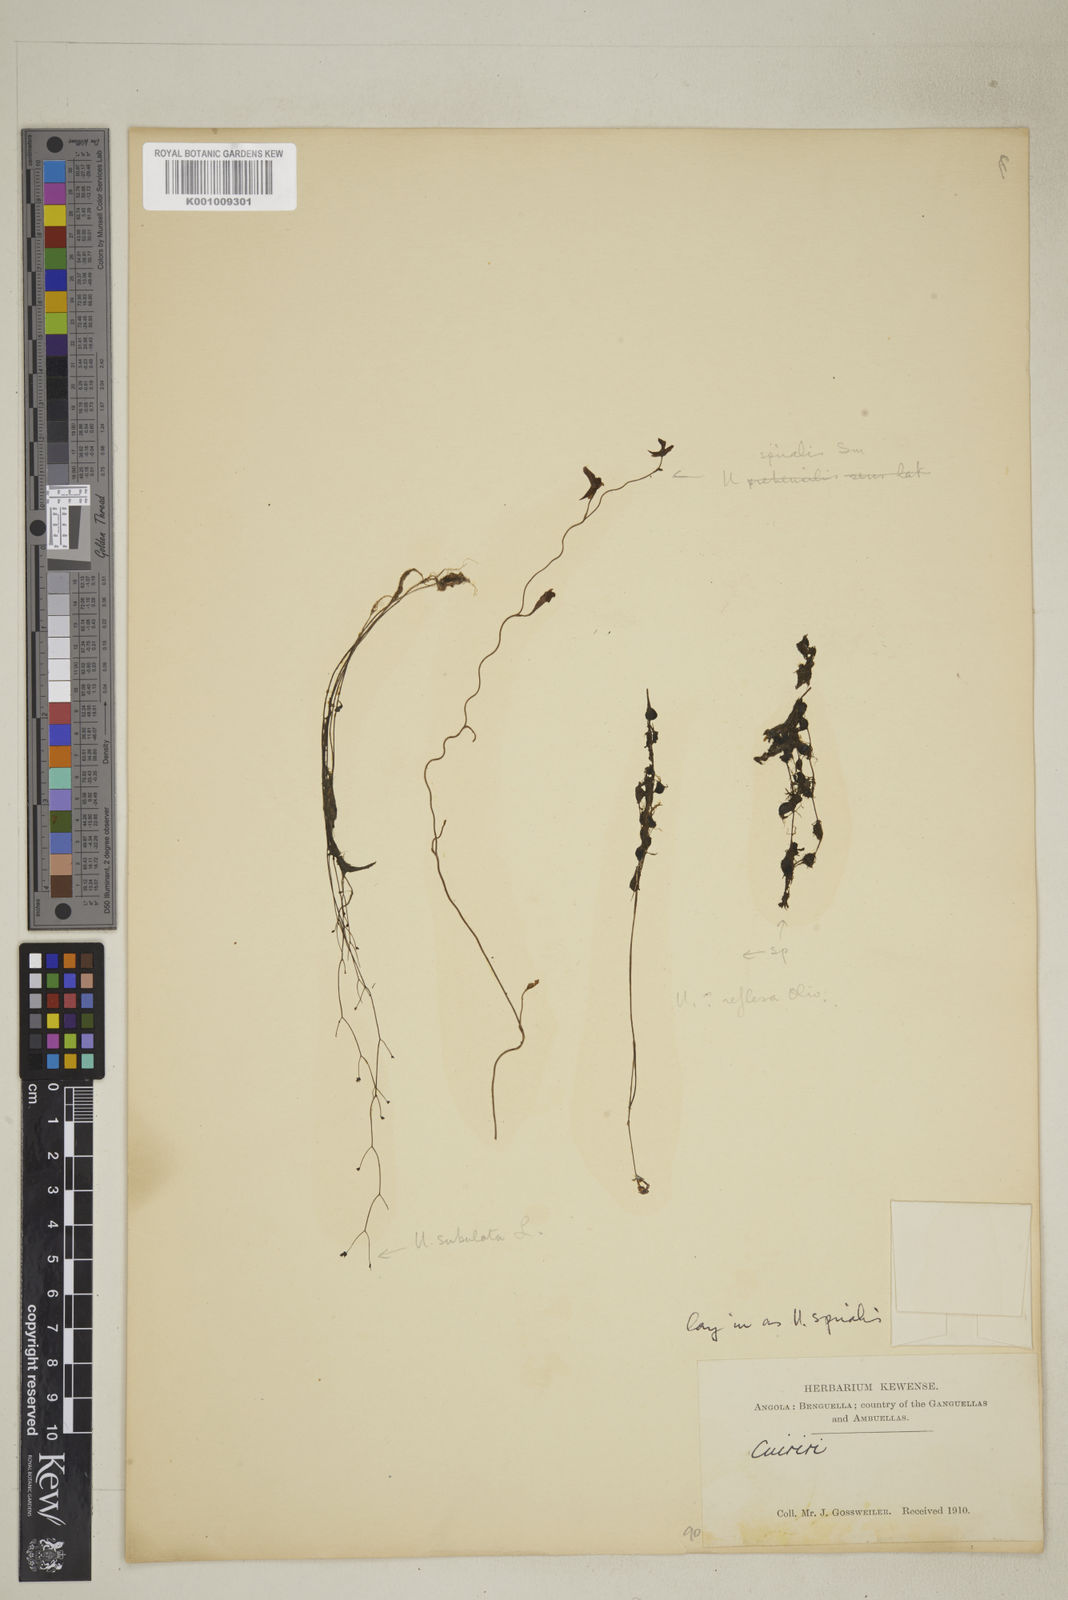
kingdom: Plantae
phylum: Tracheophyta
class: Magnoliopsida
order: Lamiales
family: Lentibulariaceae
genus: Utricularia
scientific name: Utricularia spiralis
